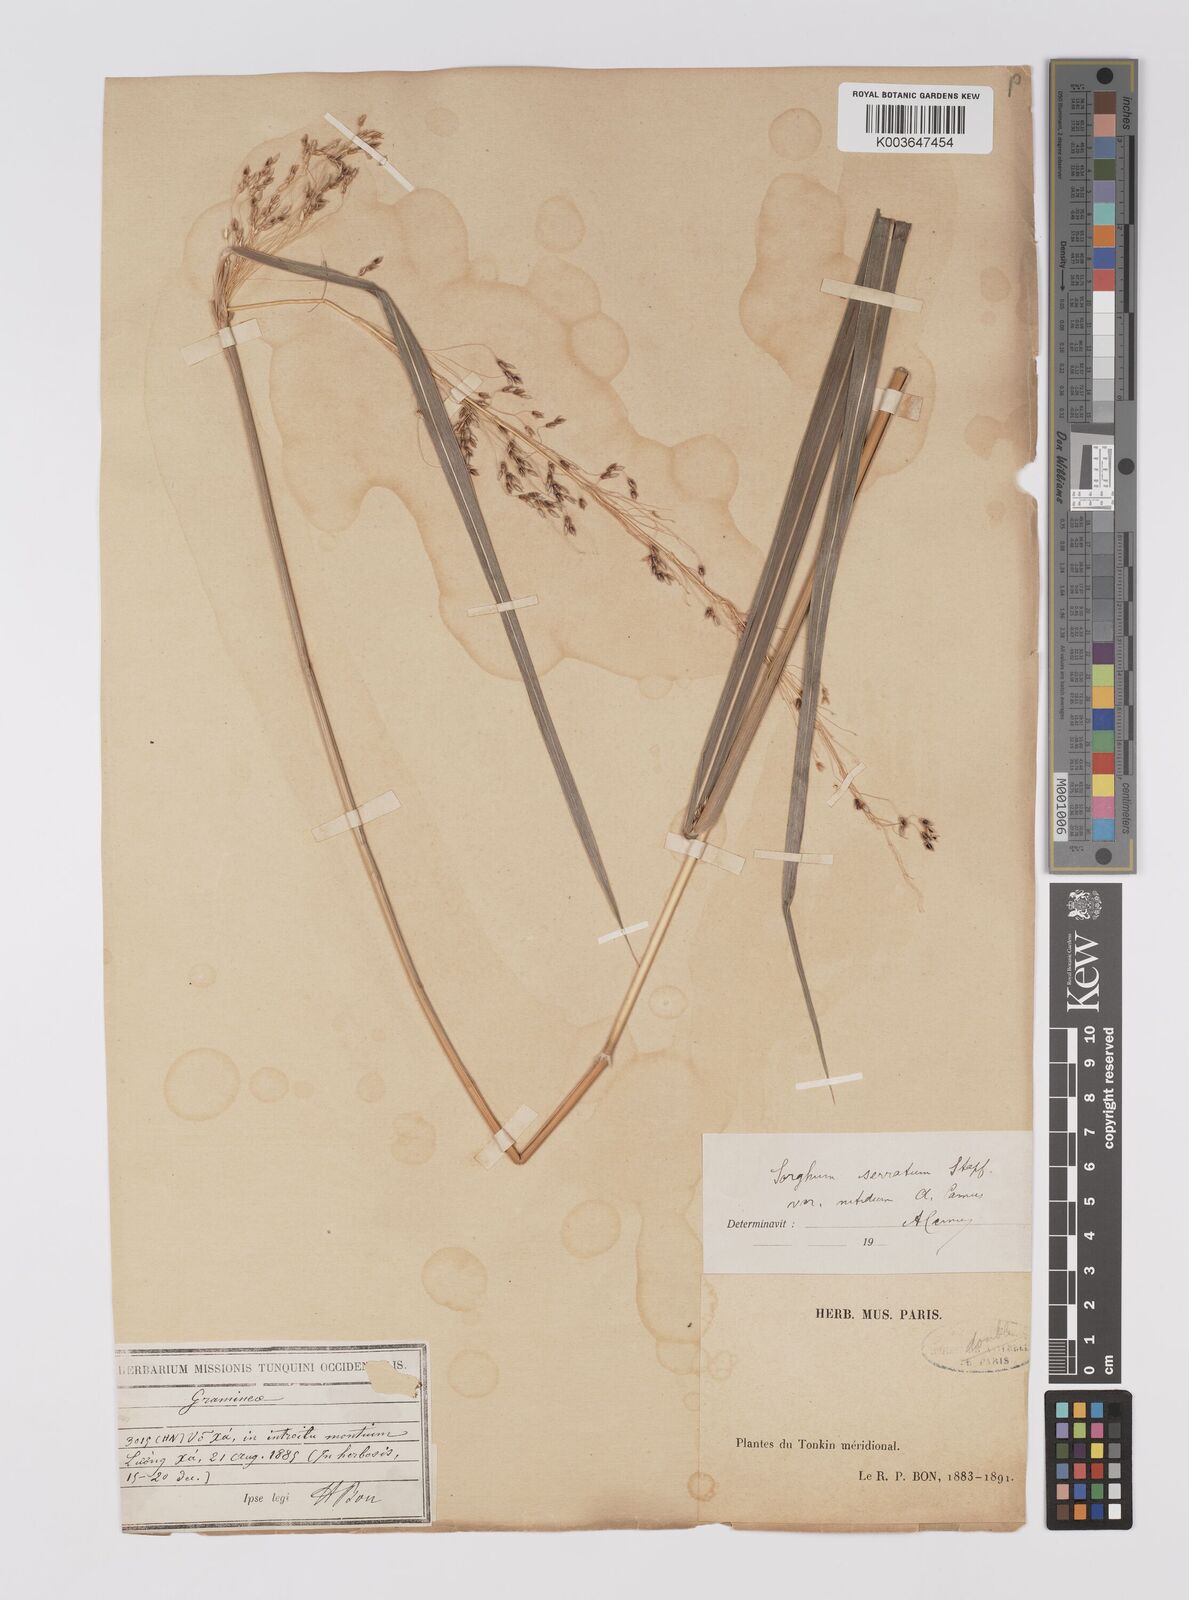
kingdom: Plantae
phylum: Tracheophyta
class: Liliopsida
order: Poales
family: Poaceae
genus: Sorghum
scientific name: Sorghum nitidum
